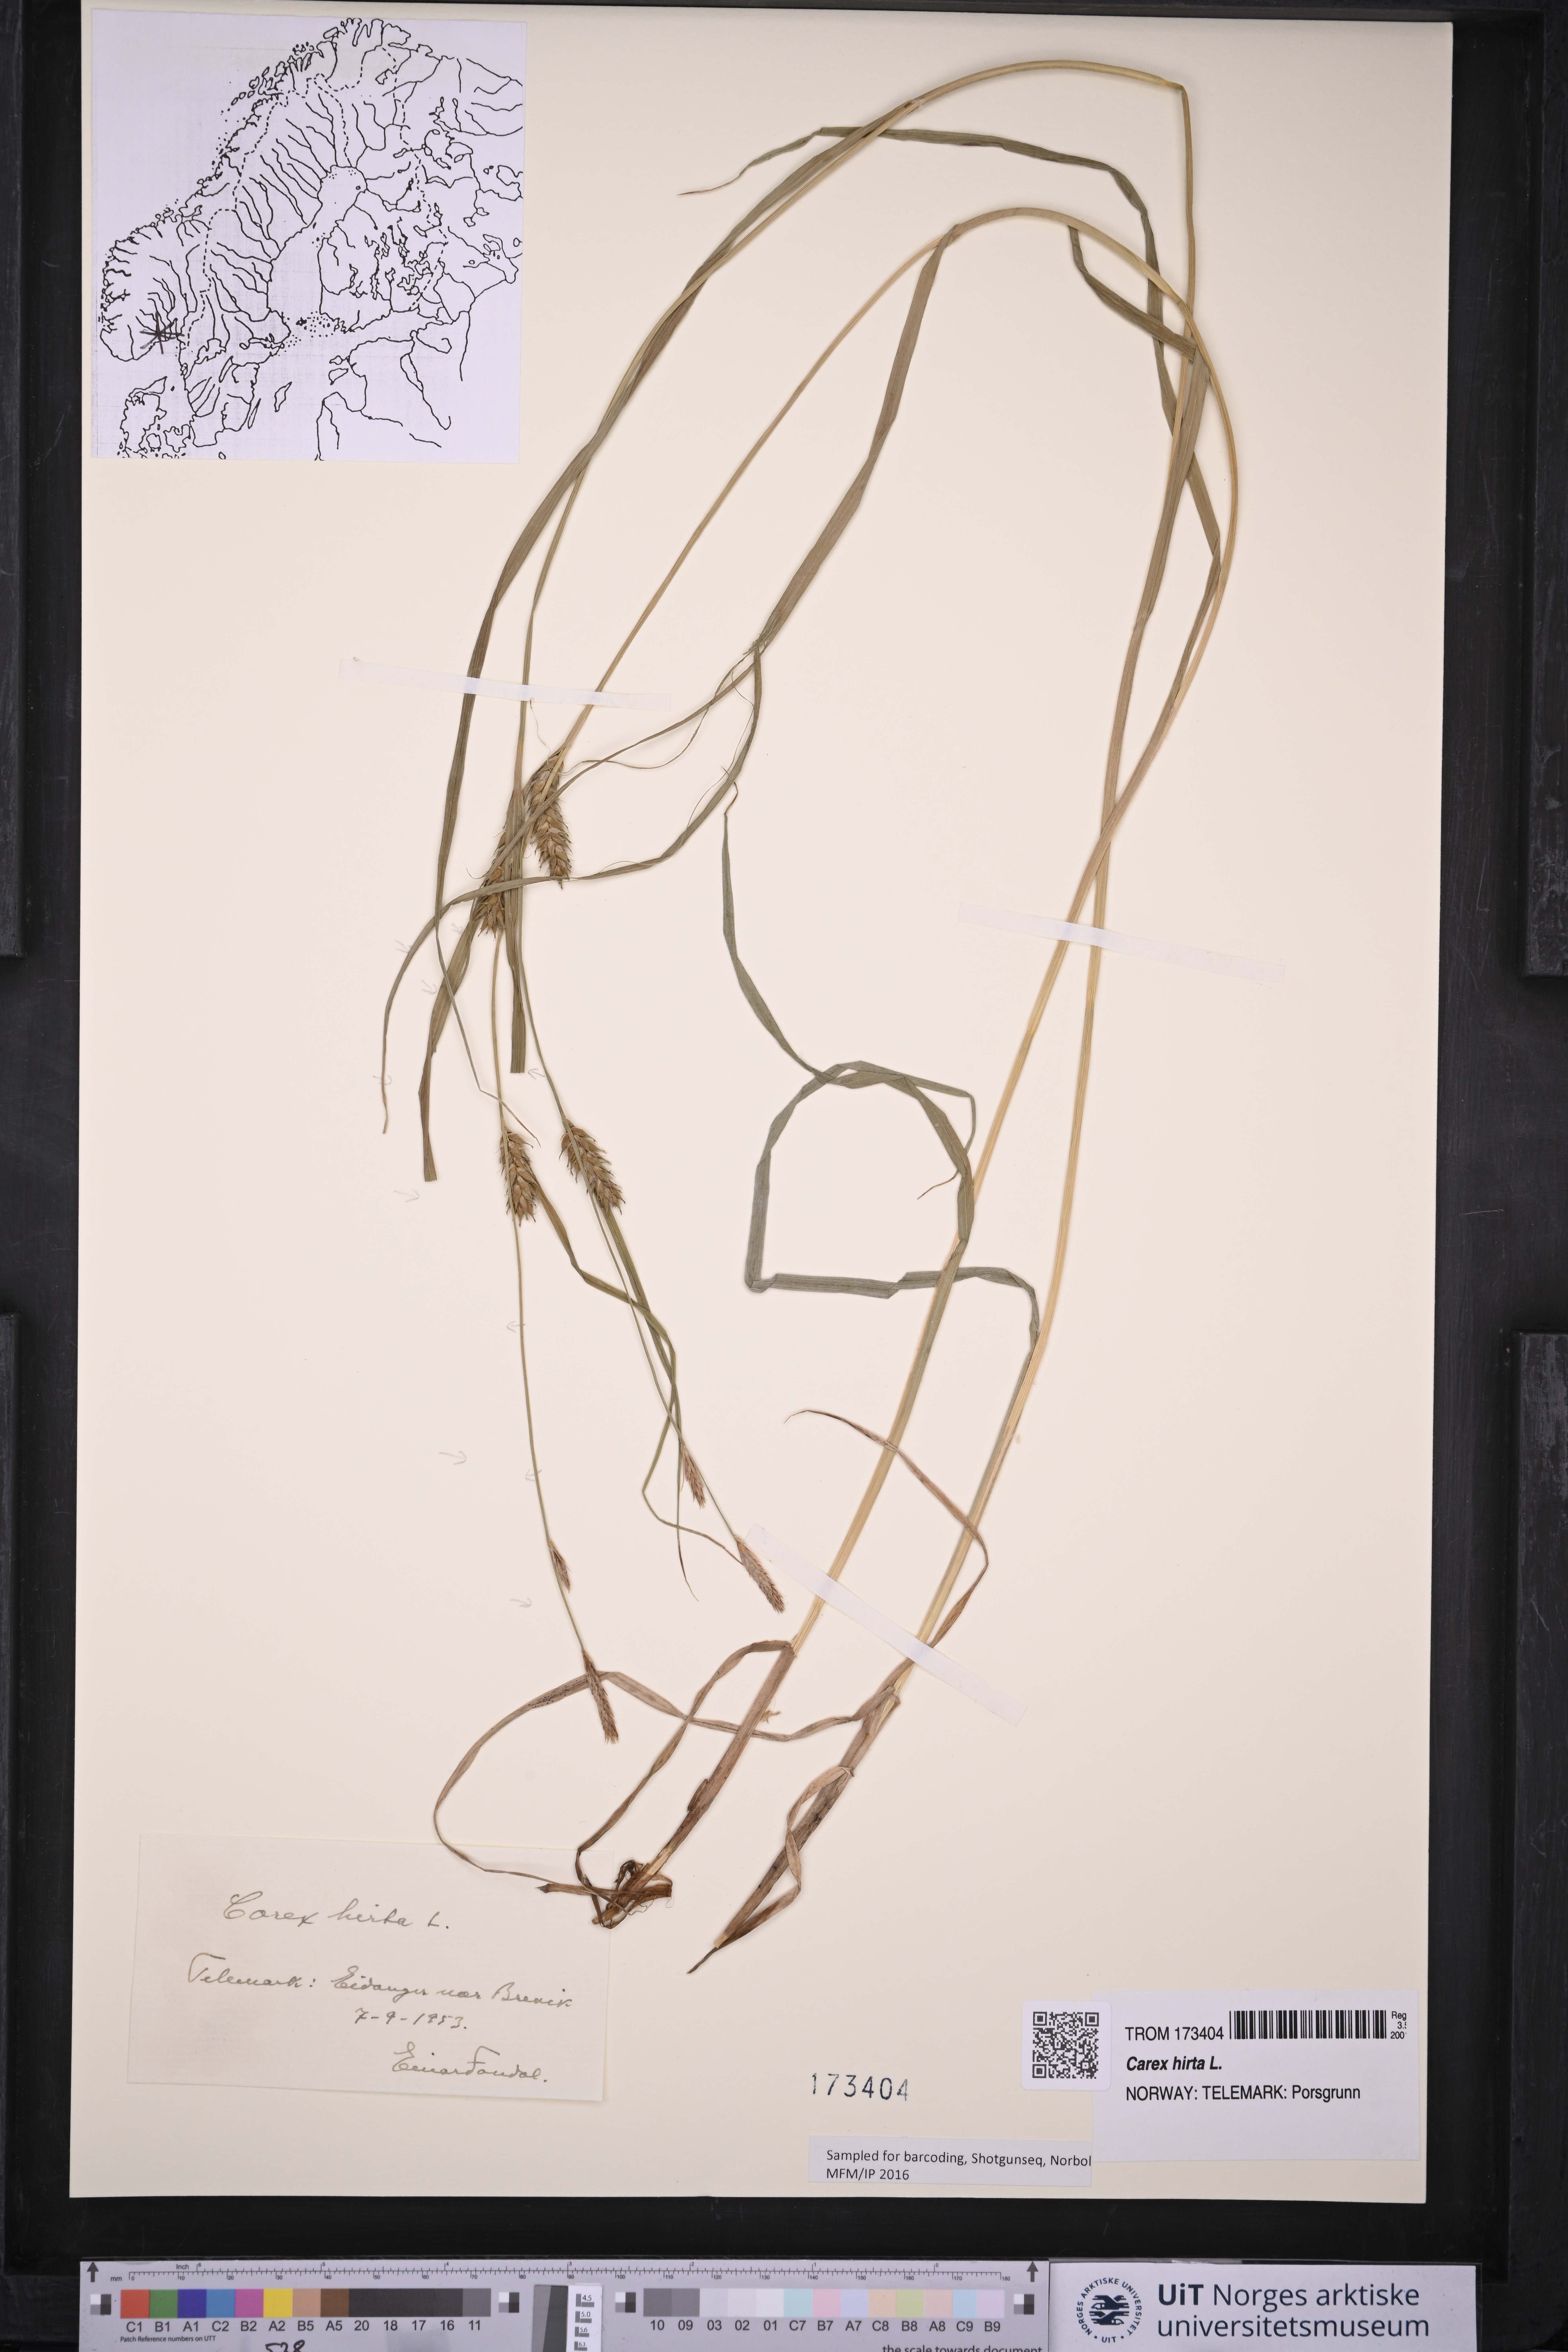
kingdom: Plantae
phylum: Tracheophyta
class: Liliopsida
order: Poales
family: Cyperaceae
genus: Carex
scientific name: Carex hirta
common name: Hairy sedge
